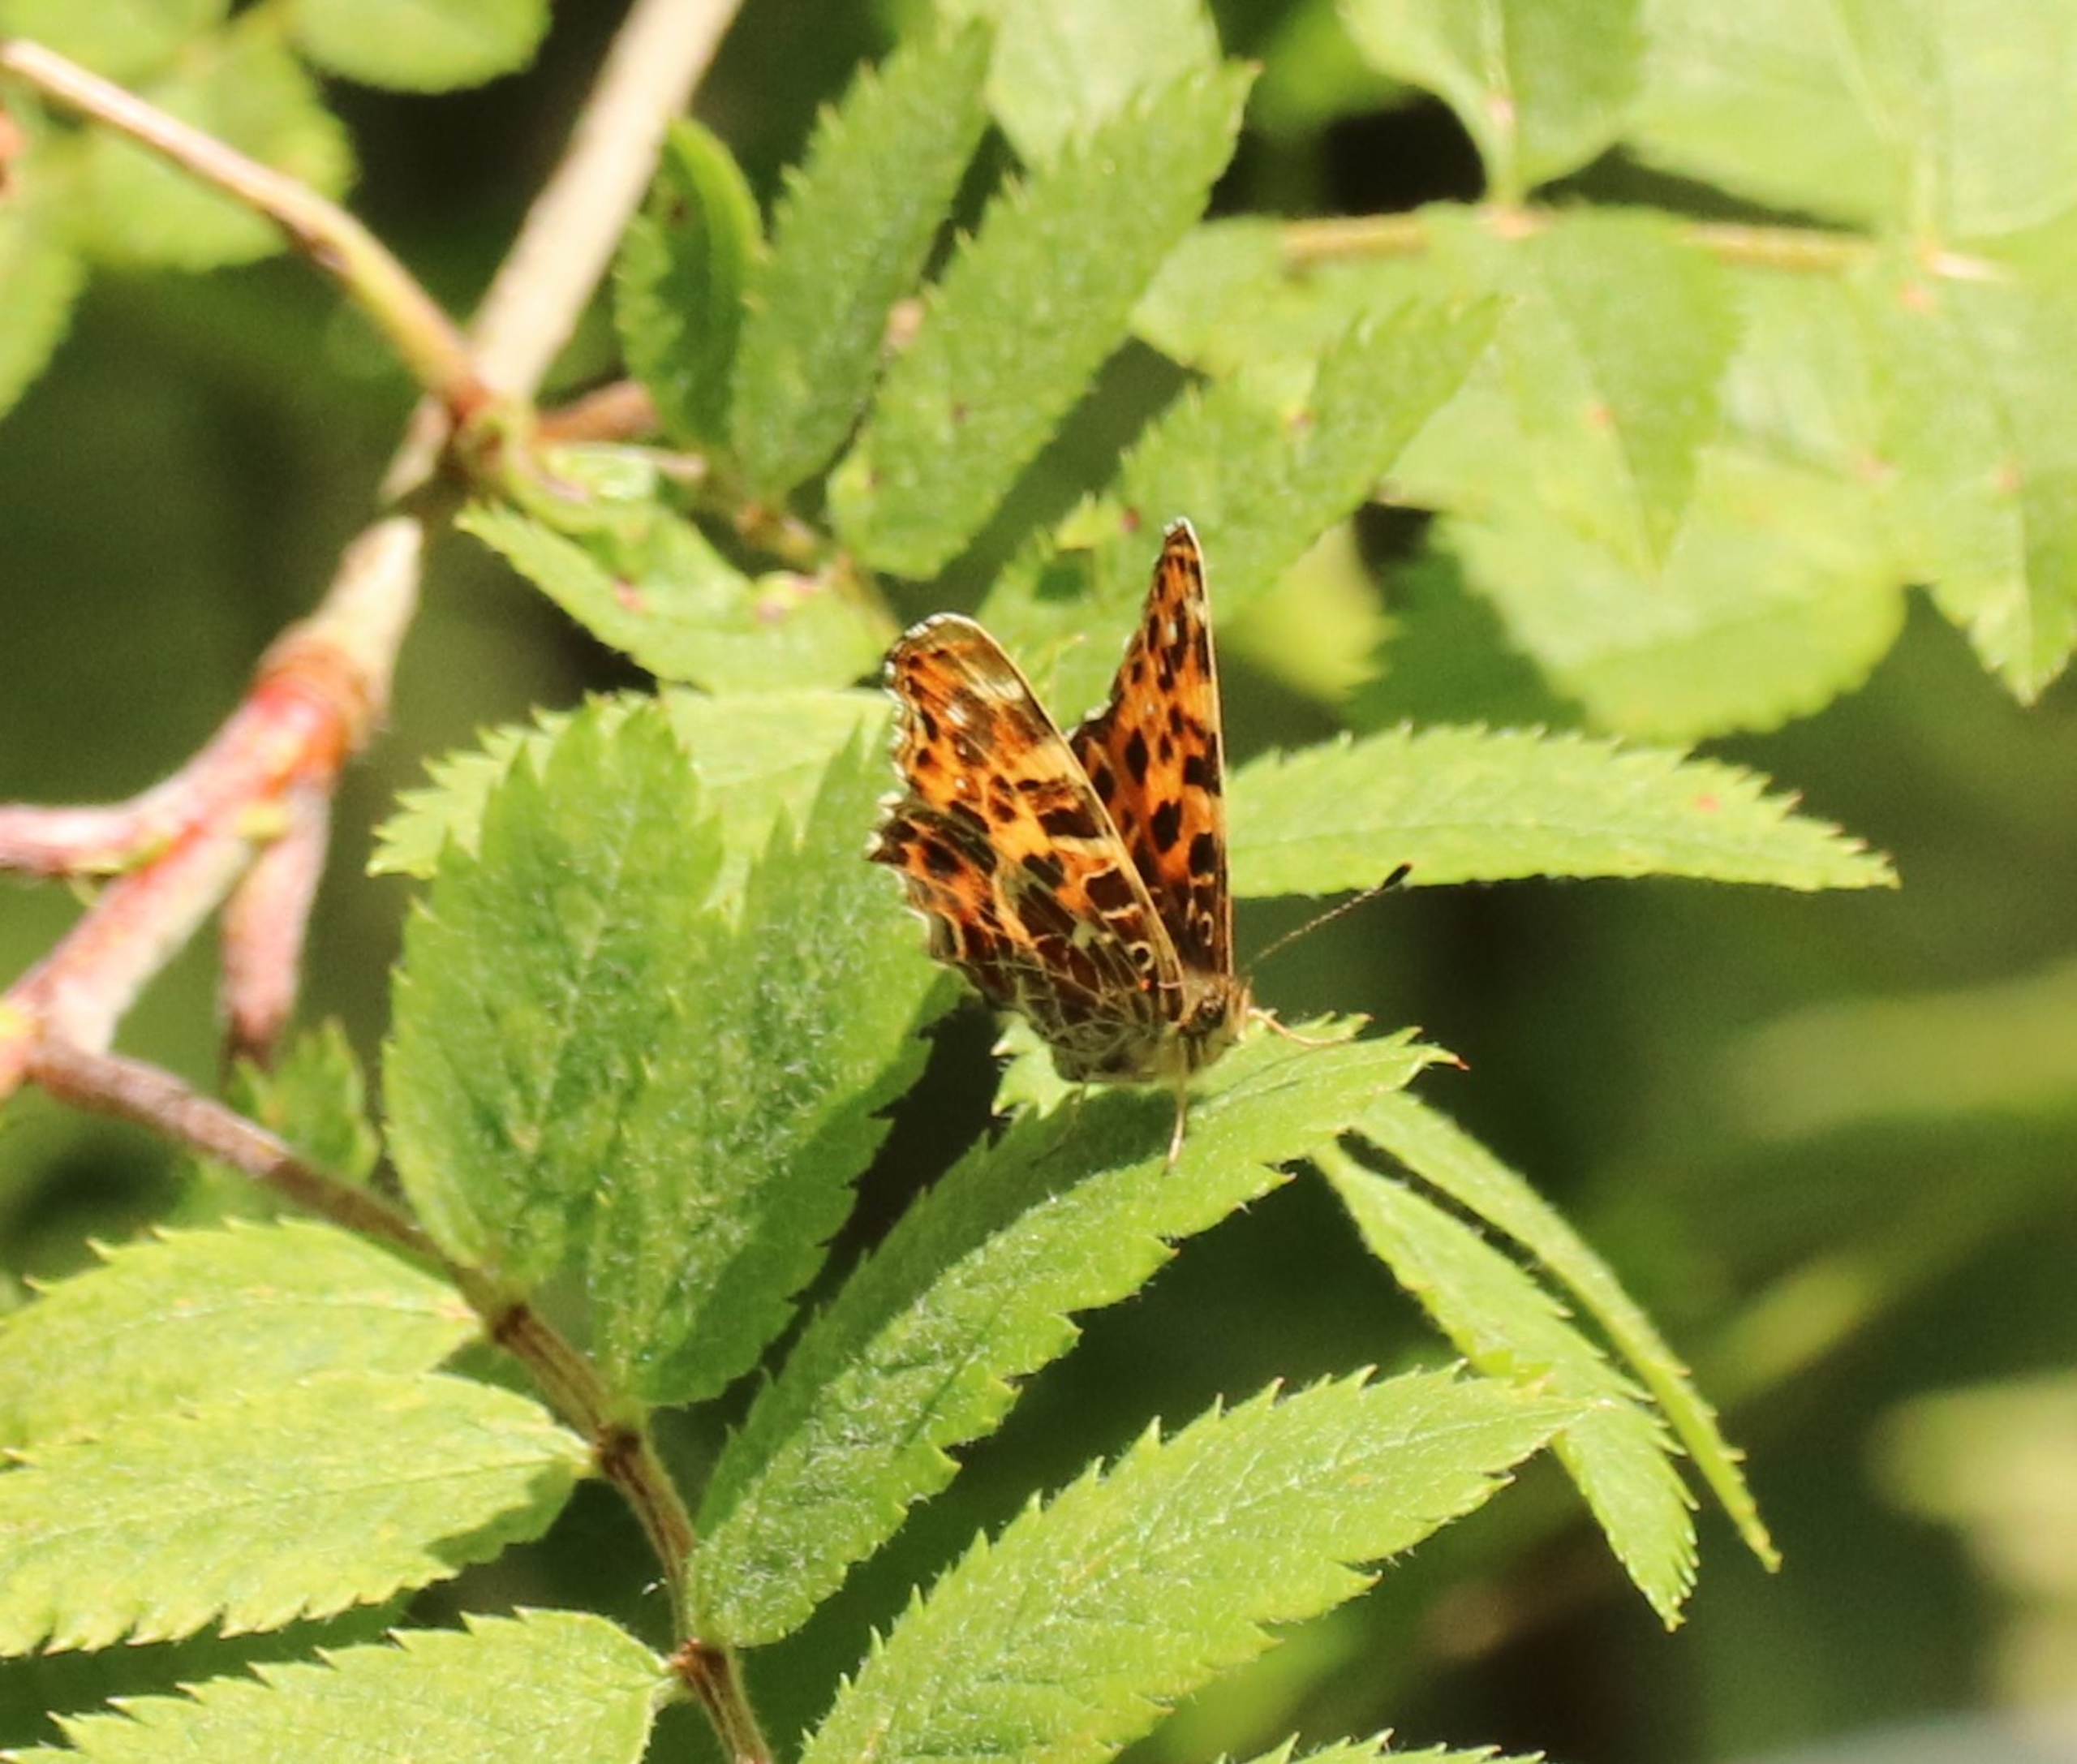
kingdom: Animalia
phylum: Arthropoda
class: Insecta
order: Lepidoptera
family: Nymphalidae
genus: Araschnia
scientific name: Araschnia levana
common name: Nældesommerfugl
